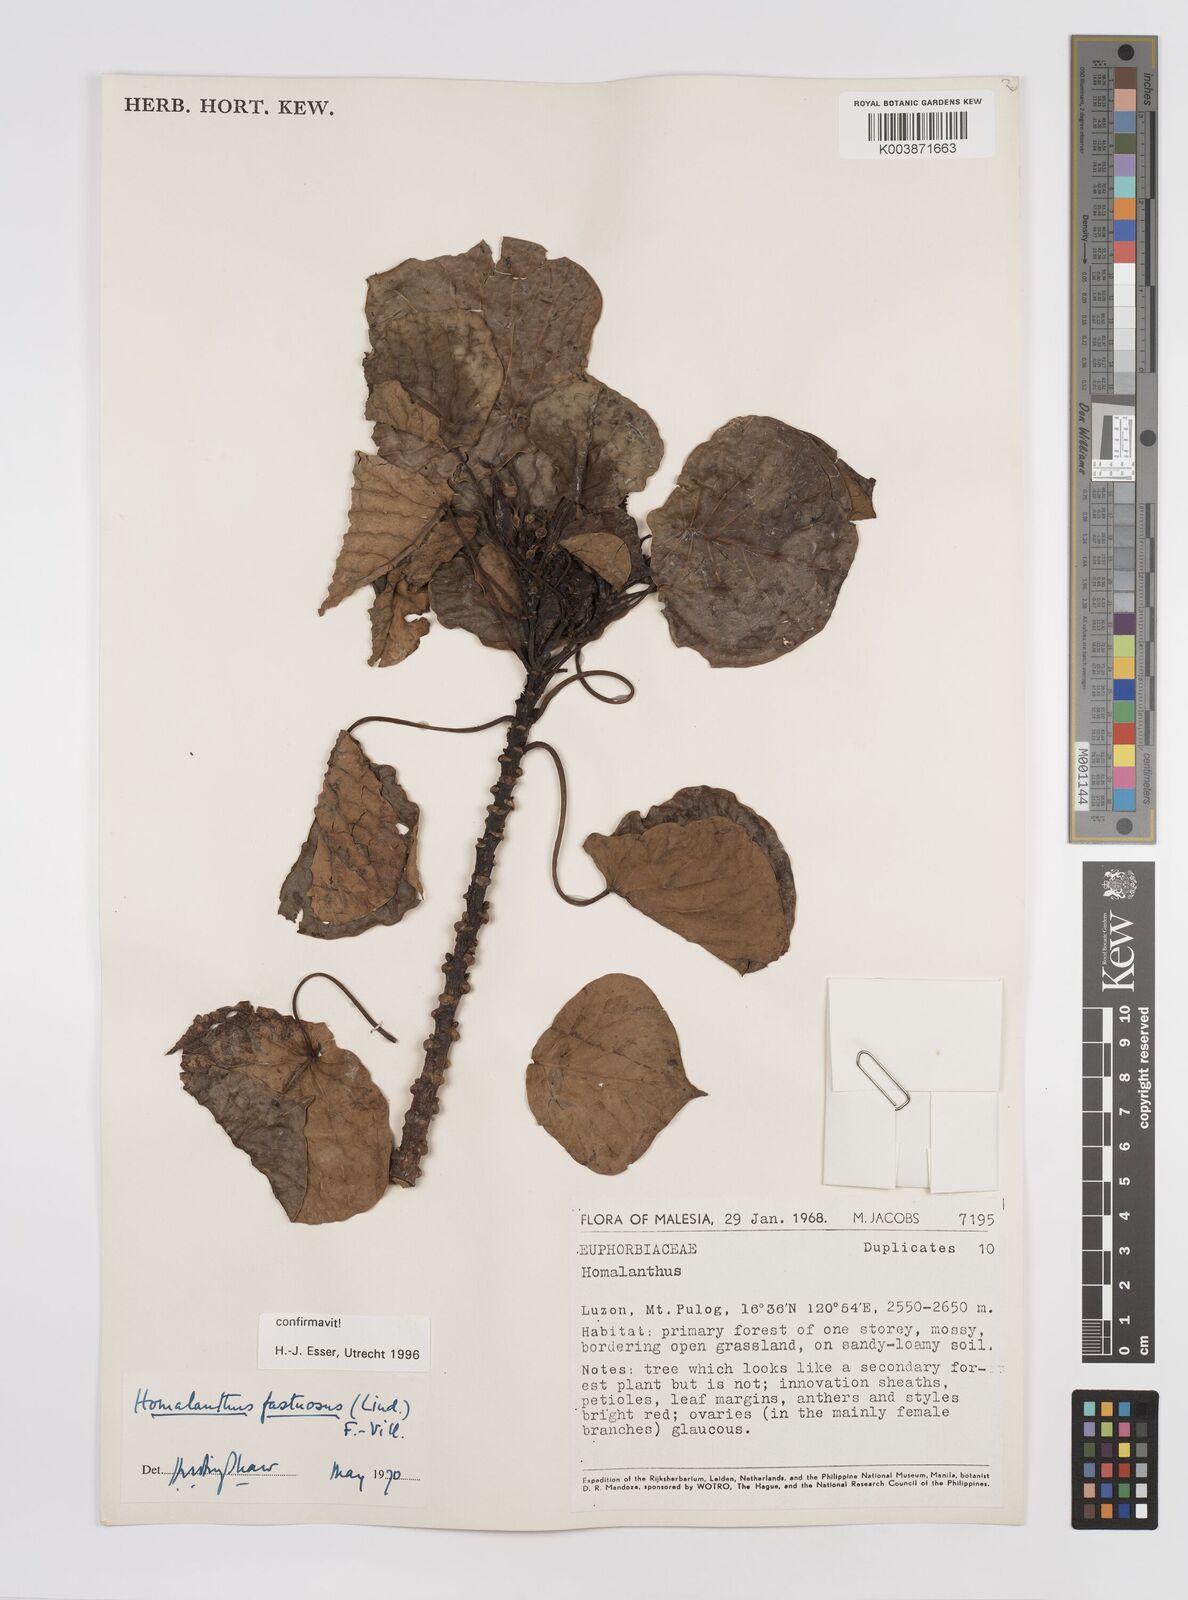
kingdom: Plantae
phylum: Tracheophyta
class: Magnoliopsida
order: Malpighiales
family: Euphorbiaceae
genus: Homalanthus
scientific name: Homalanthus fastuosus
